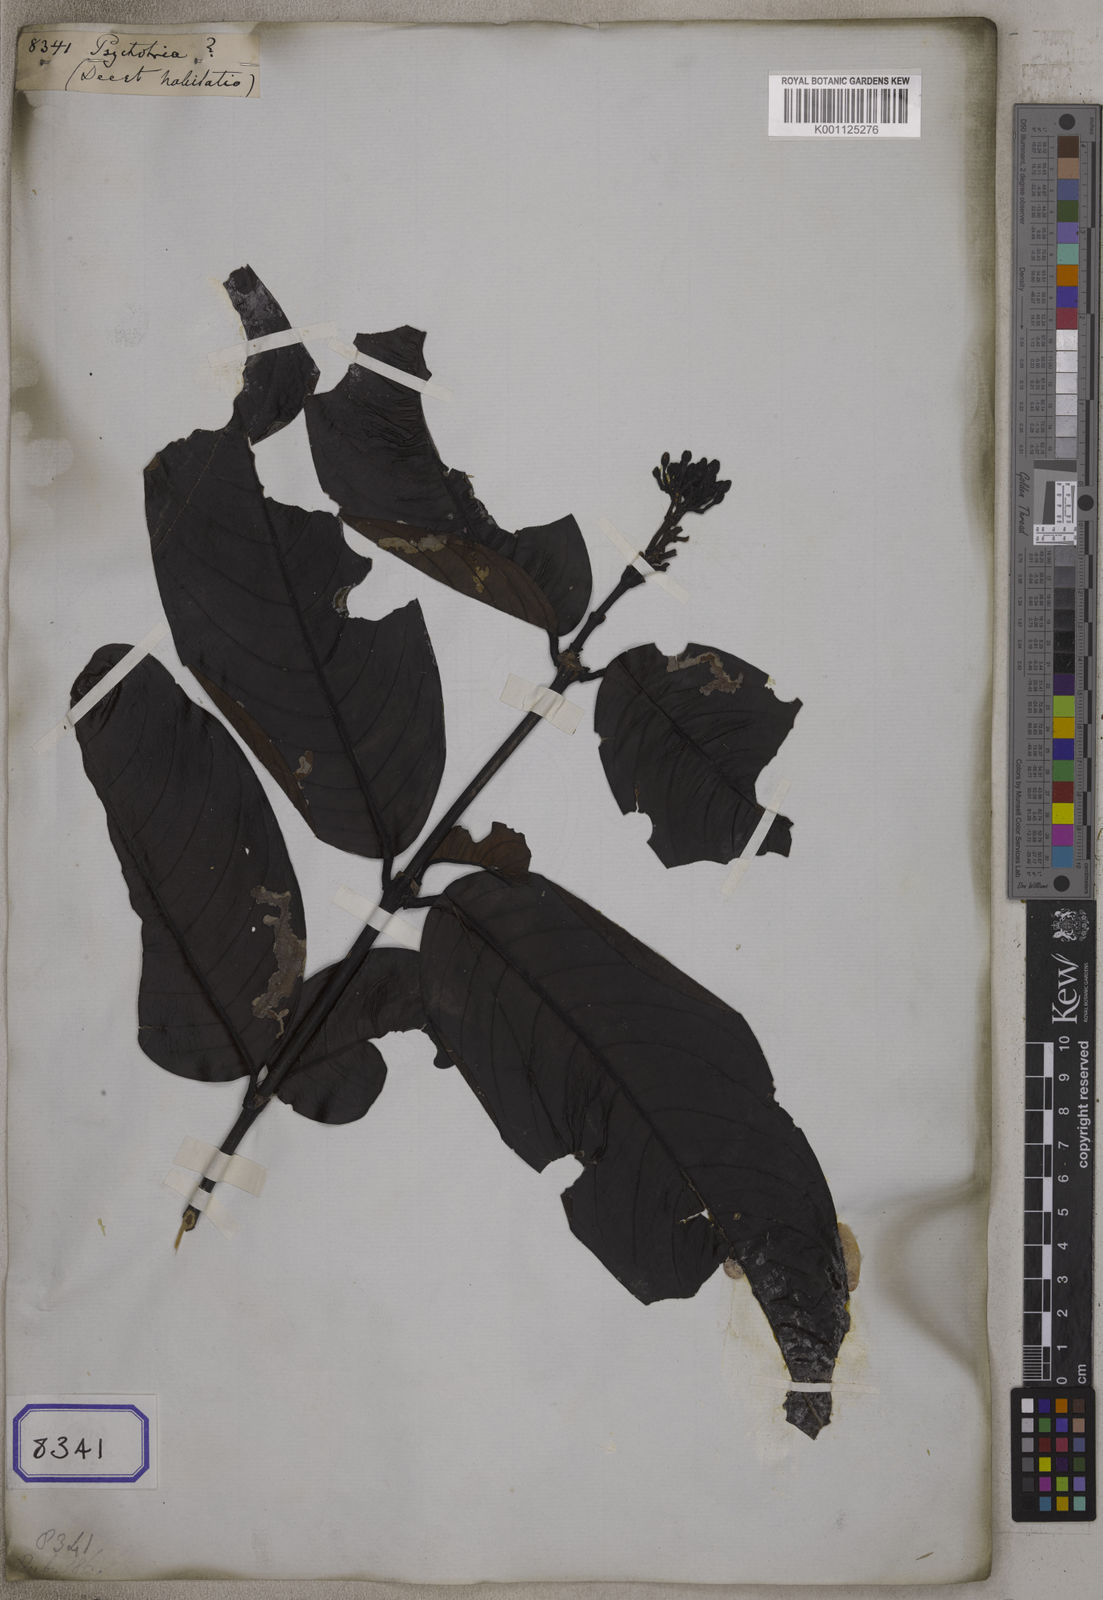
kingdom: Plantae
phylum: Tracheophyta
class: Magnoliopsida
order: Gentianales
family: Rubiaceae
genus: Psychotria
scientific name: Psychotria
